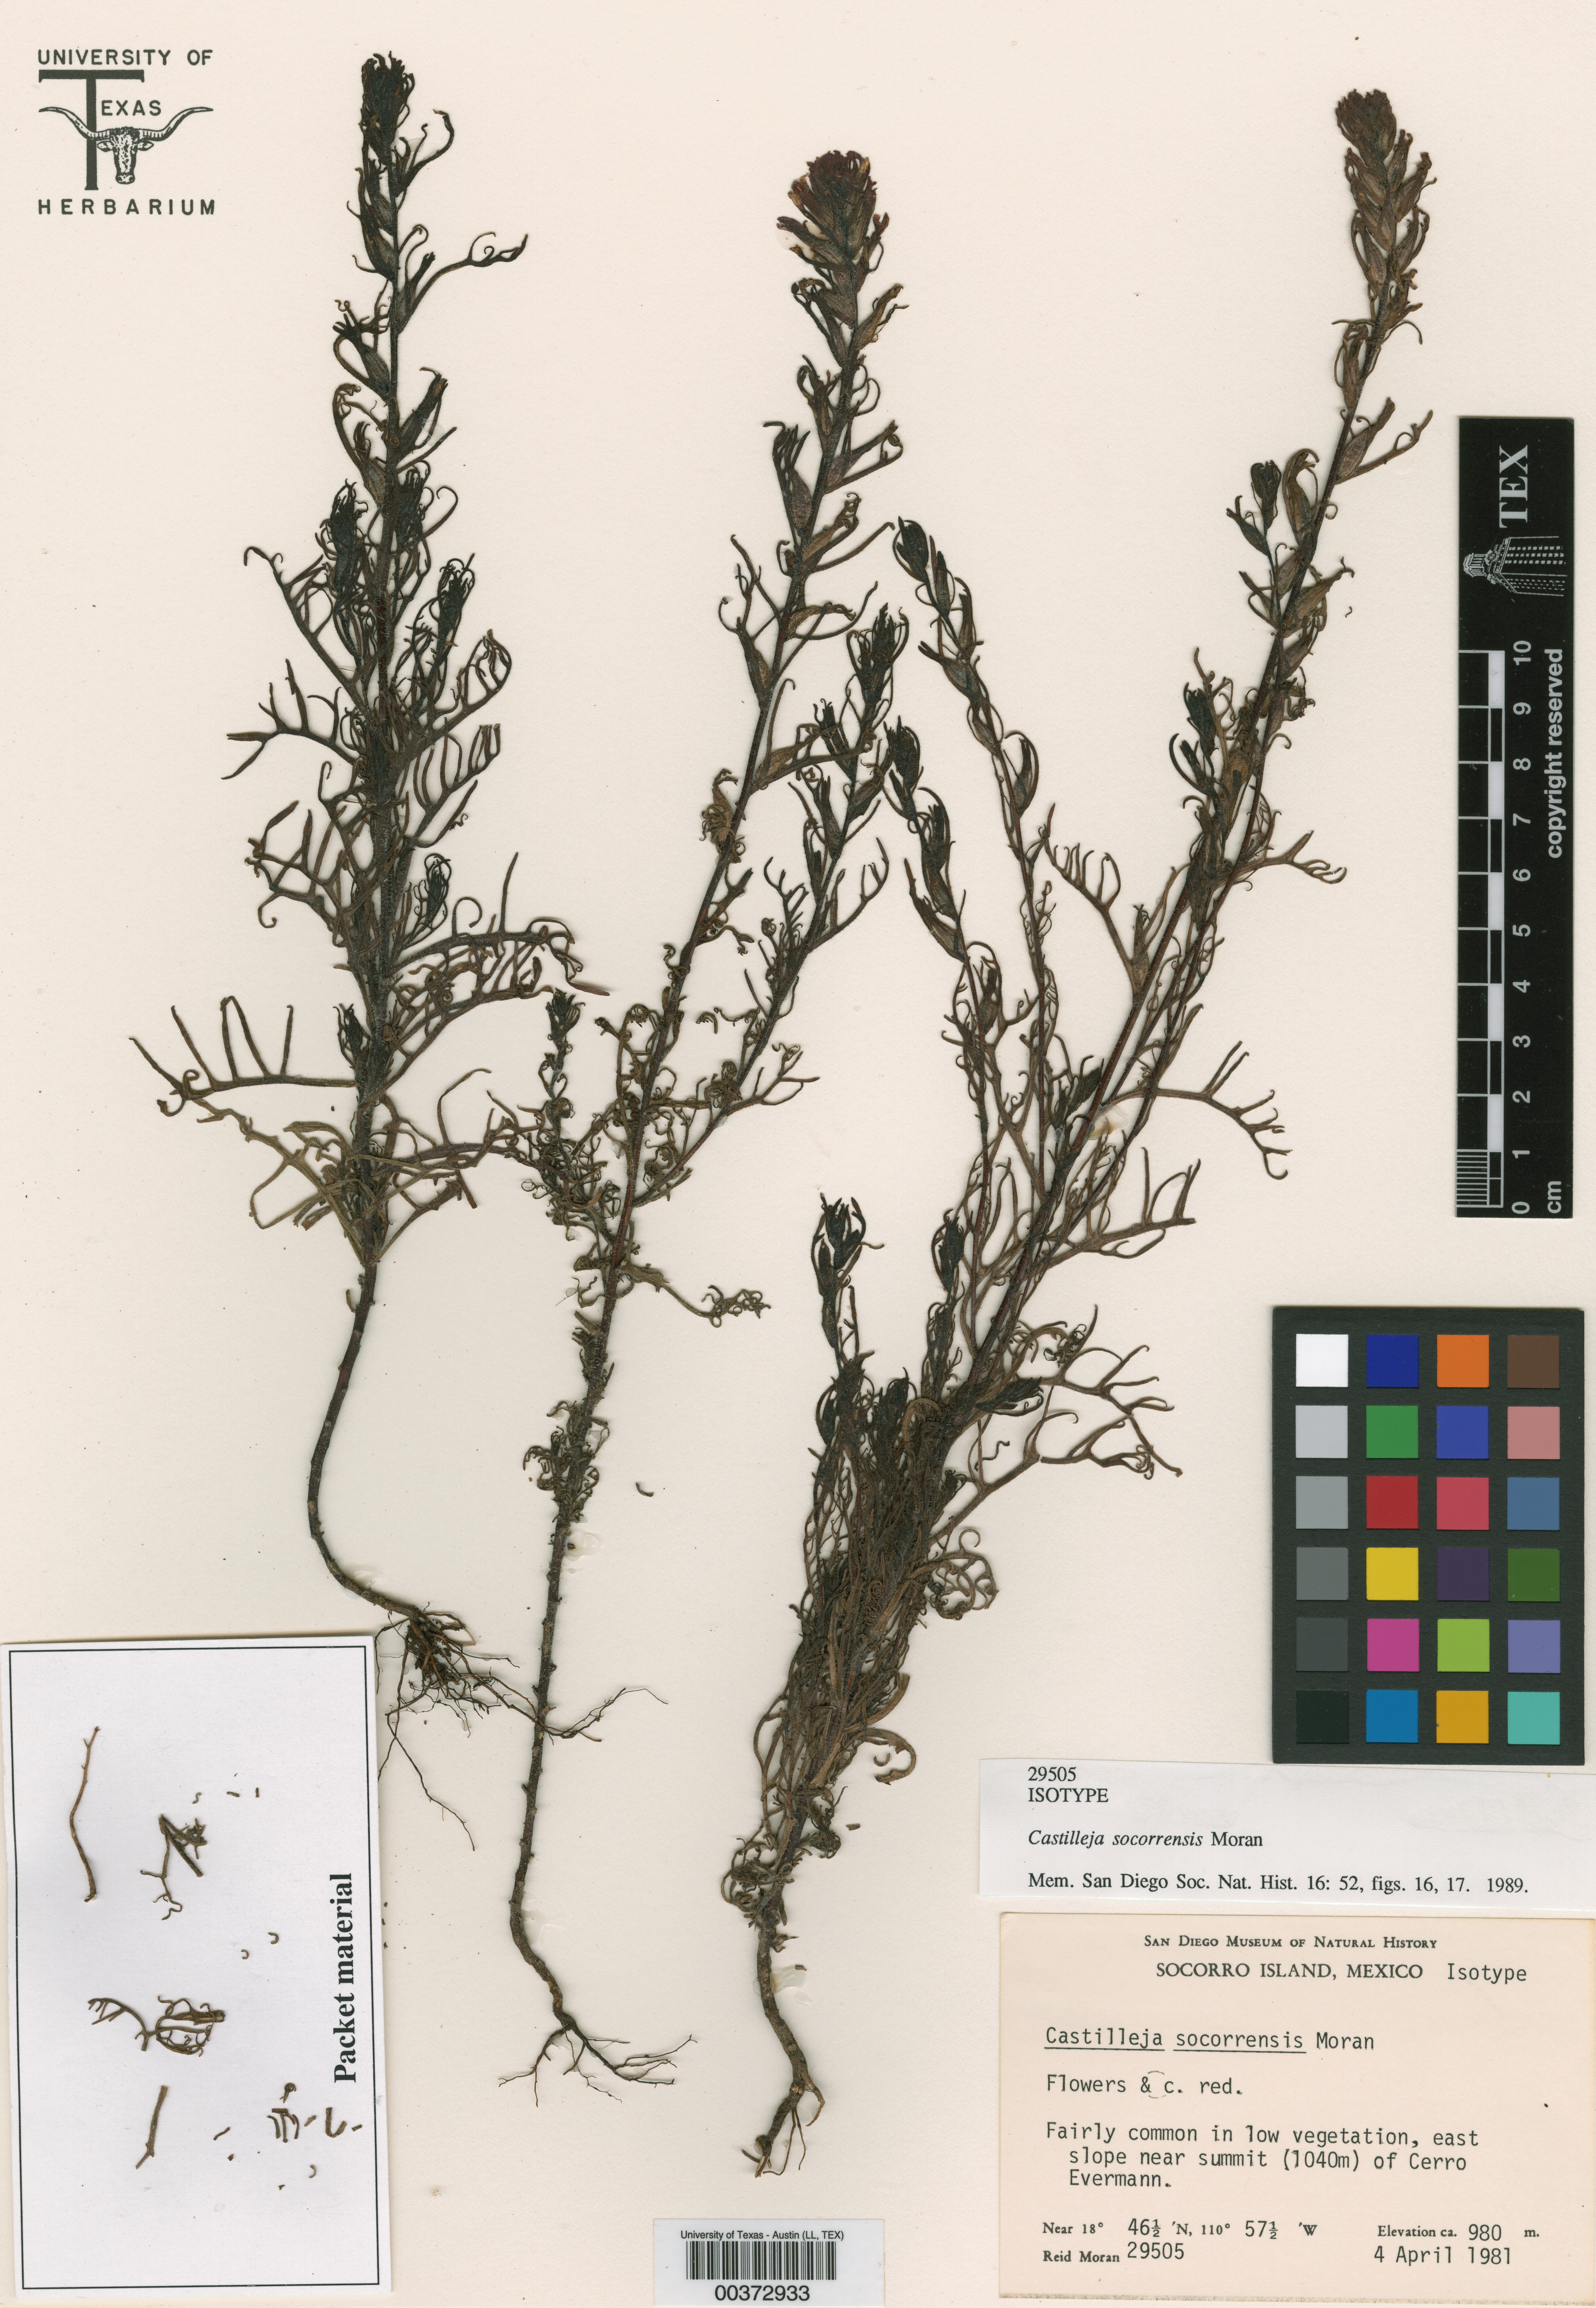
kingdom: Plantae
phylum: Tracheophyta
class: Magnoliopsida
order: Lamiales
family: Orobanchaceae
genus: Castilleja
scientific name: Castilleja bryantii
